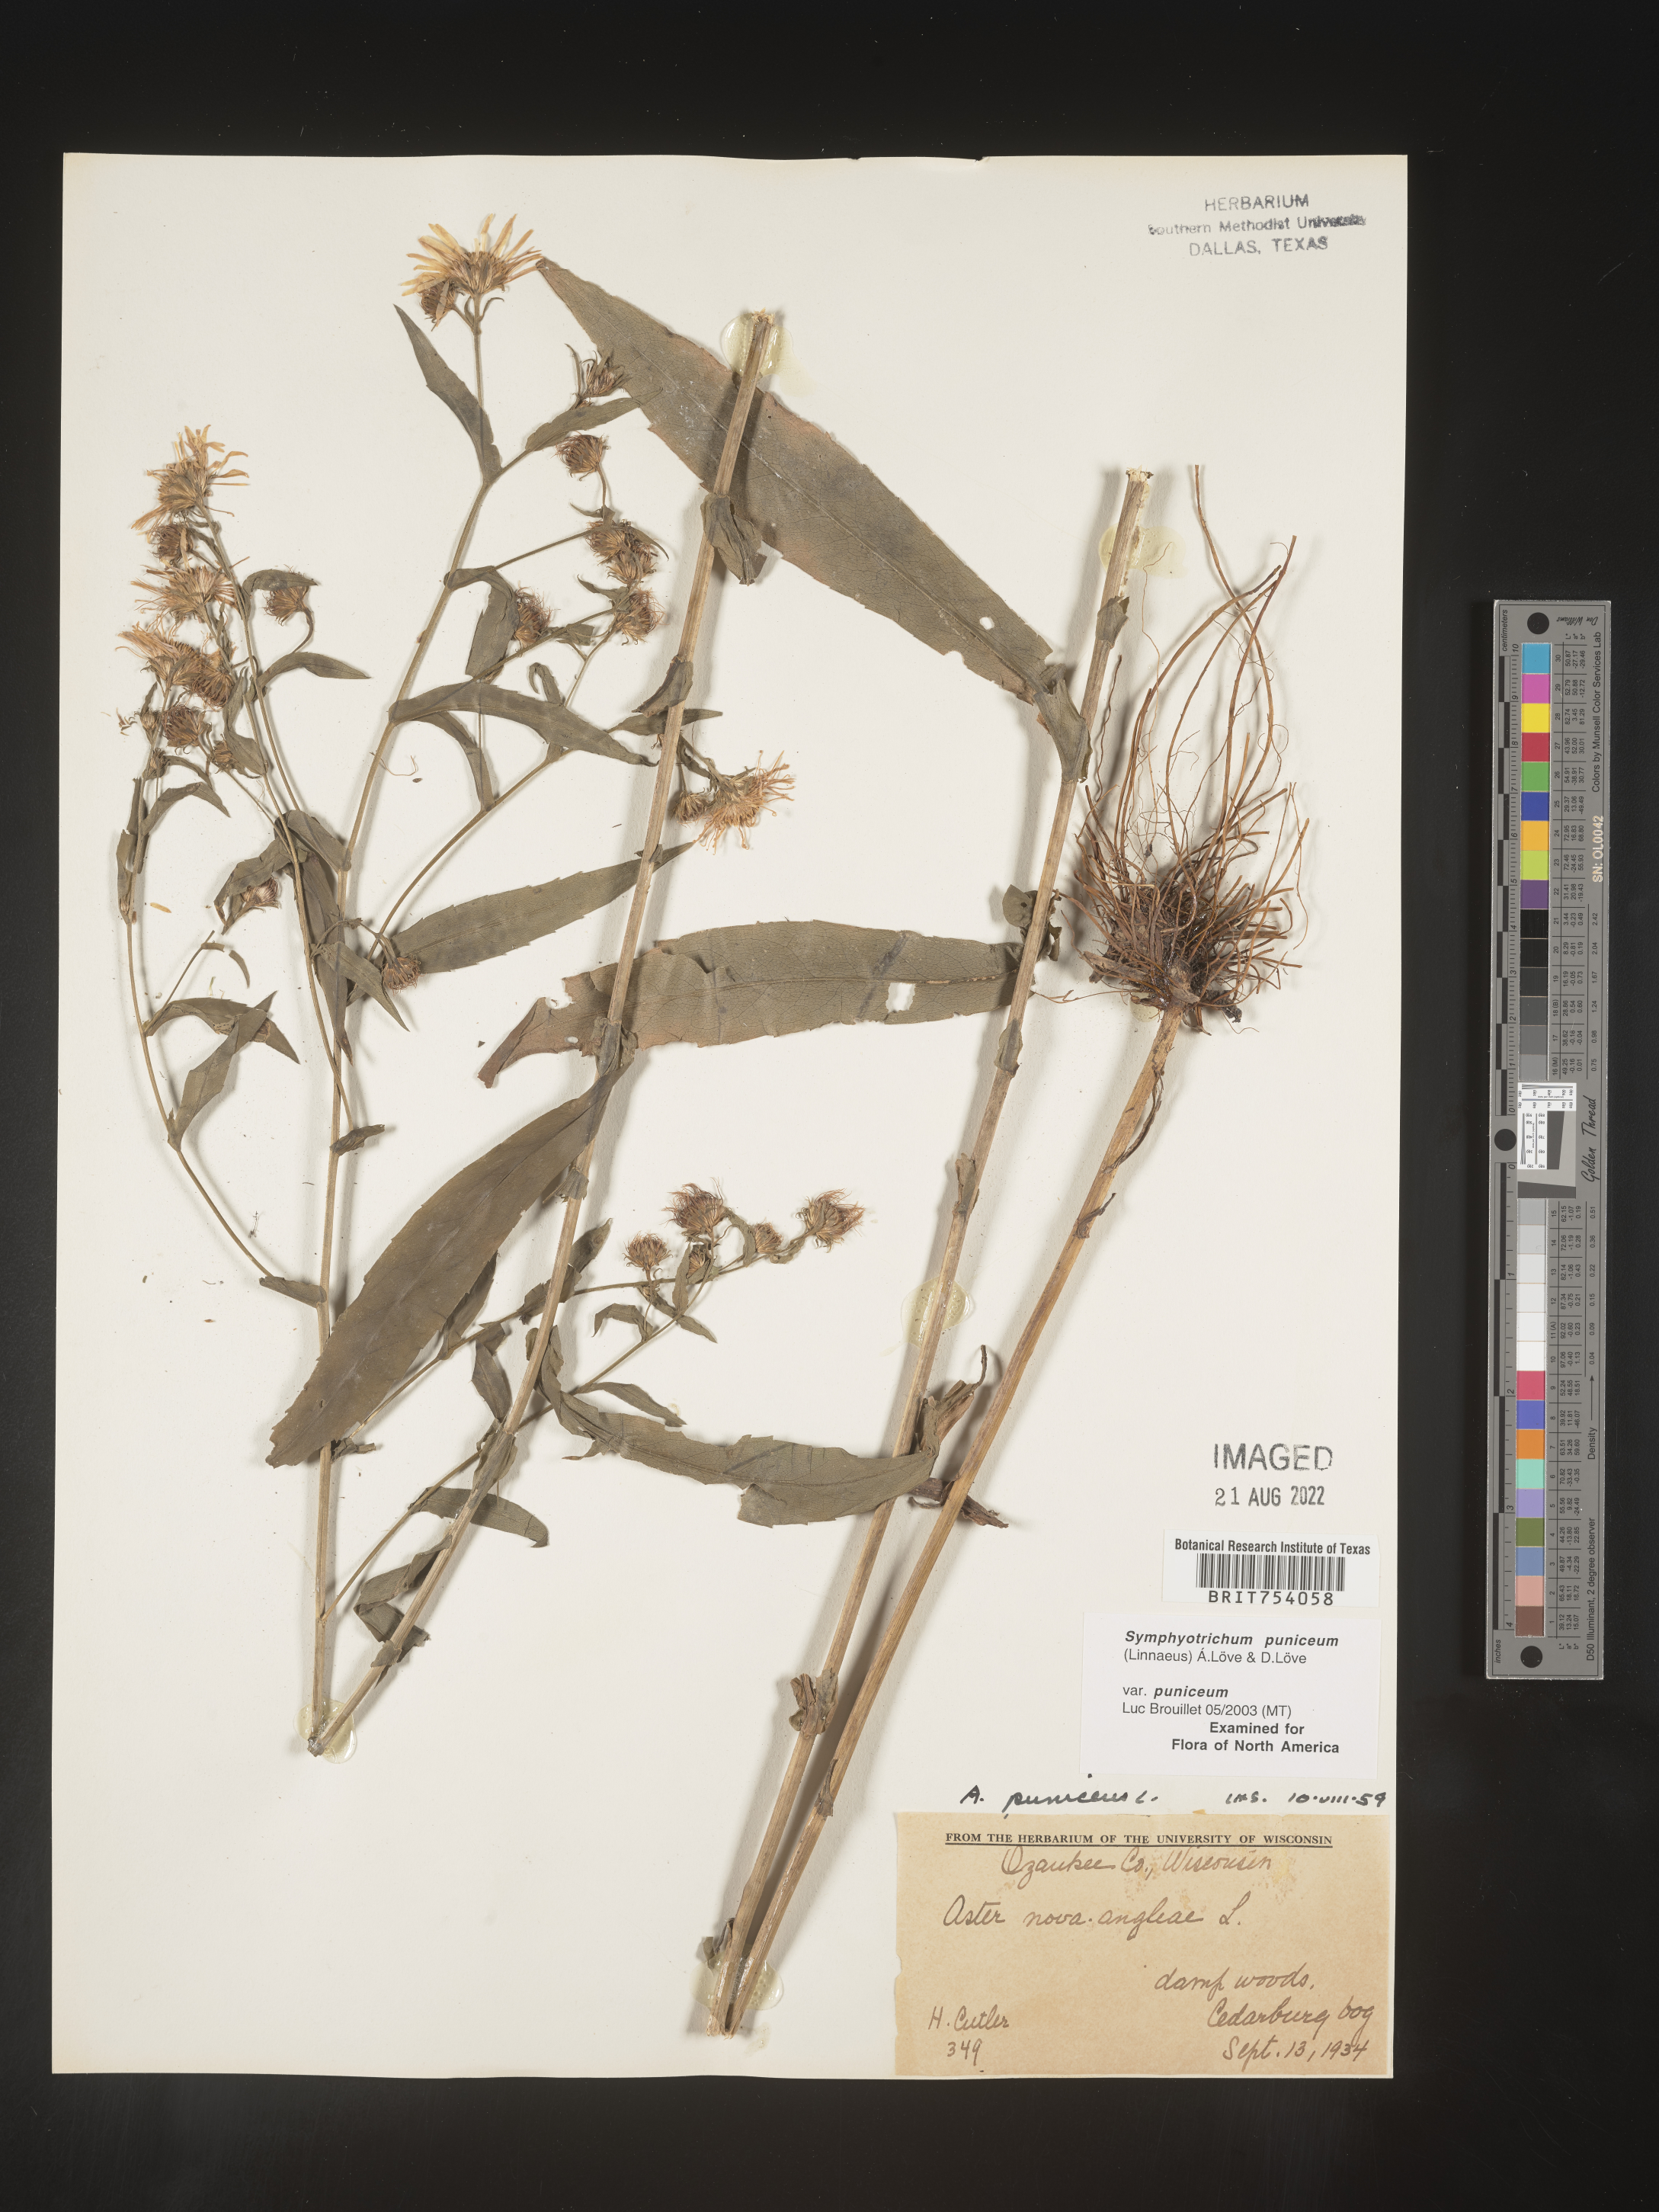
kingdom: Plantae
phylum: Tracheophyta
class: Magnoliopsida
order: Asterales
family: Asteraceae
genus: Symphyotrichum
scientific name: Symphyotrichum puniceum
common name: Bog aster
